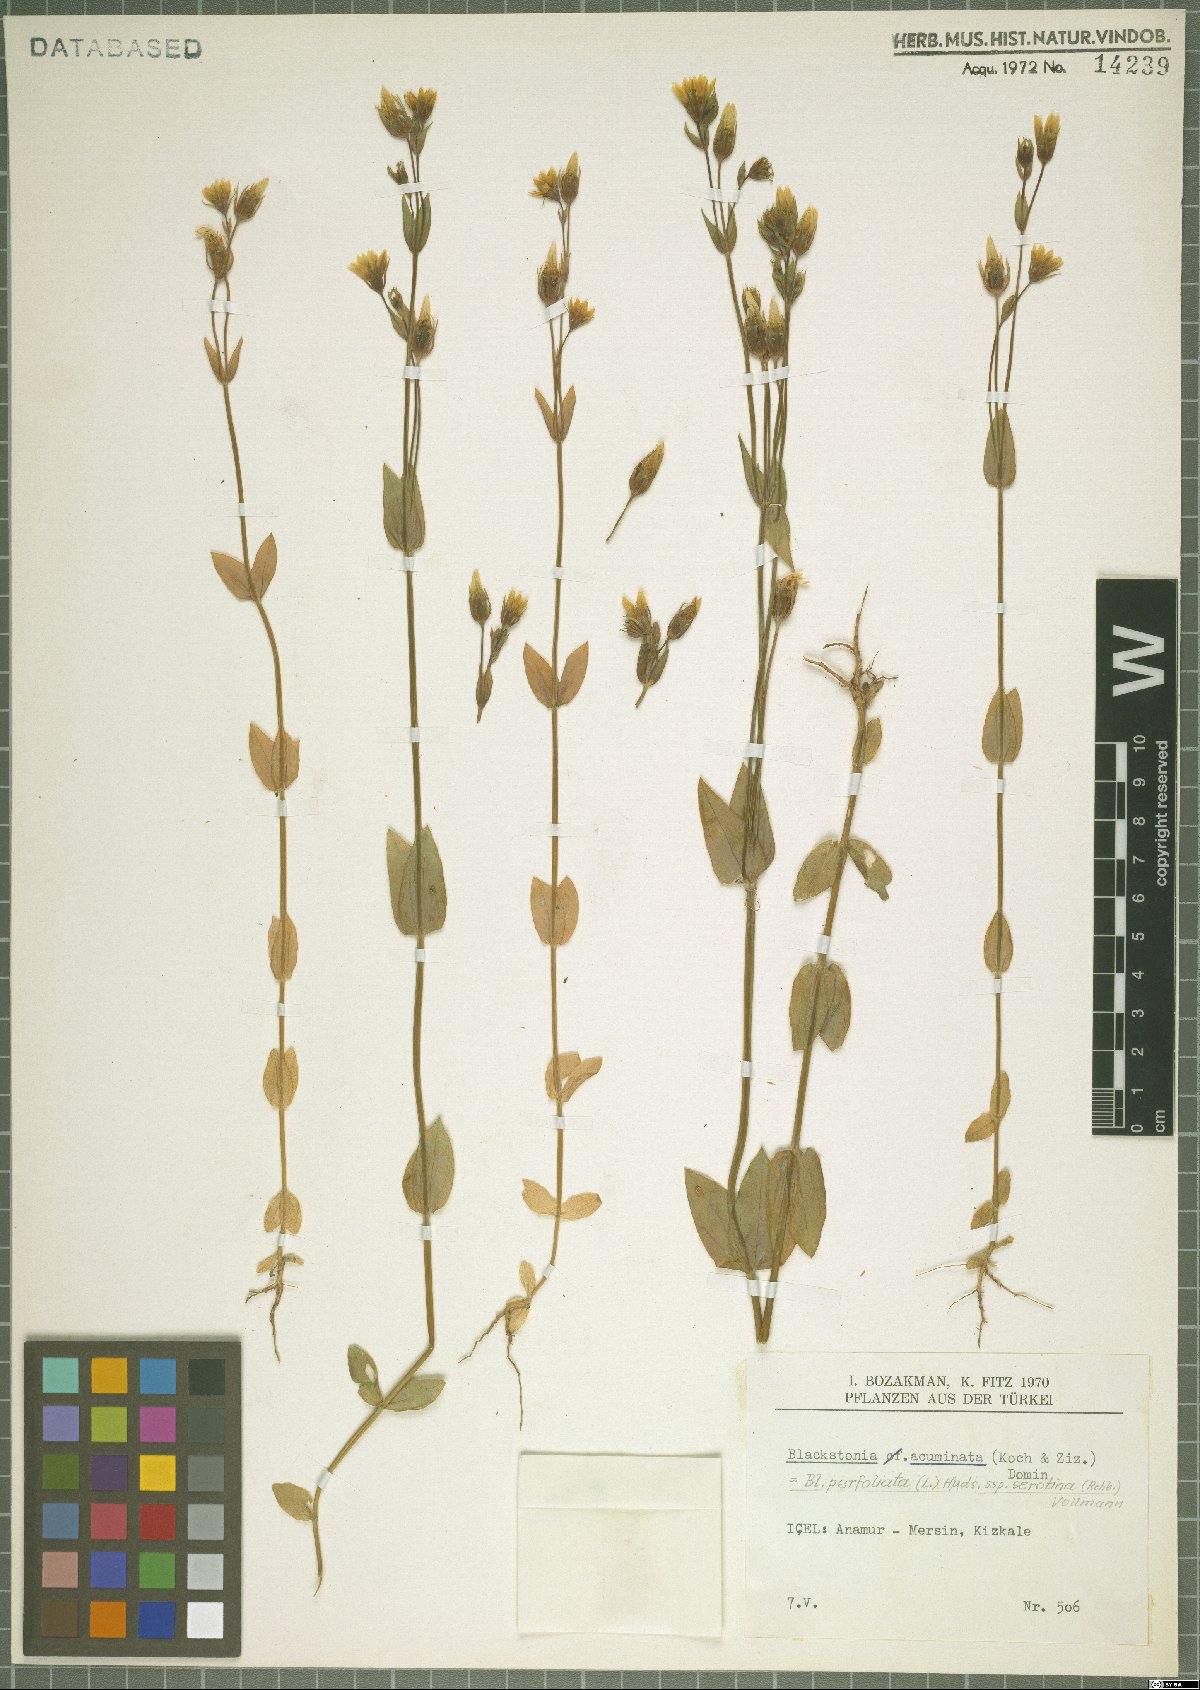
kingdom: Plantae
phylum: Tracheophyta
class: Magnoliopsida
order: Gentianales
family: Gentianaceae
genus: Blackstonia
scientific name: Blackstonia acuminata
